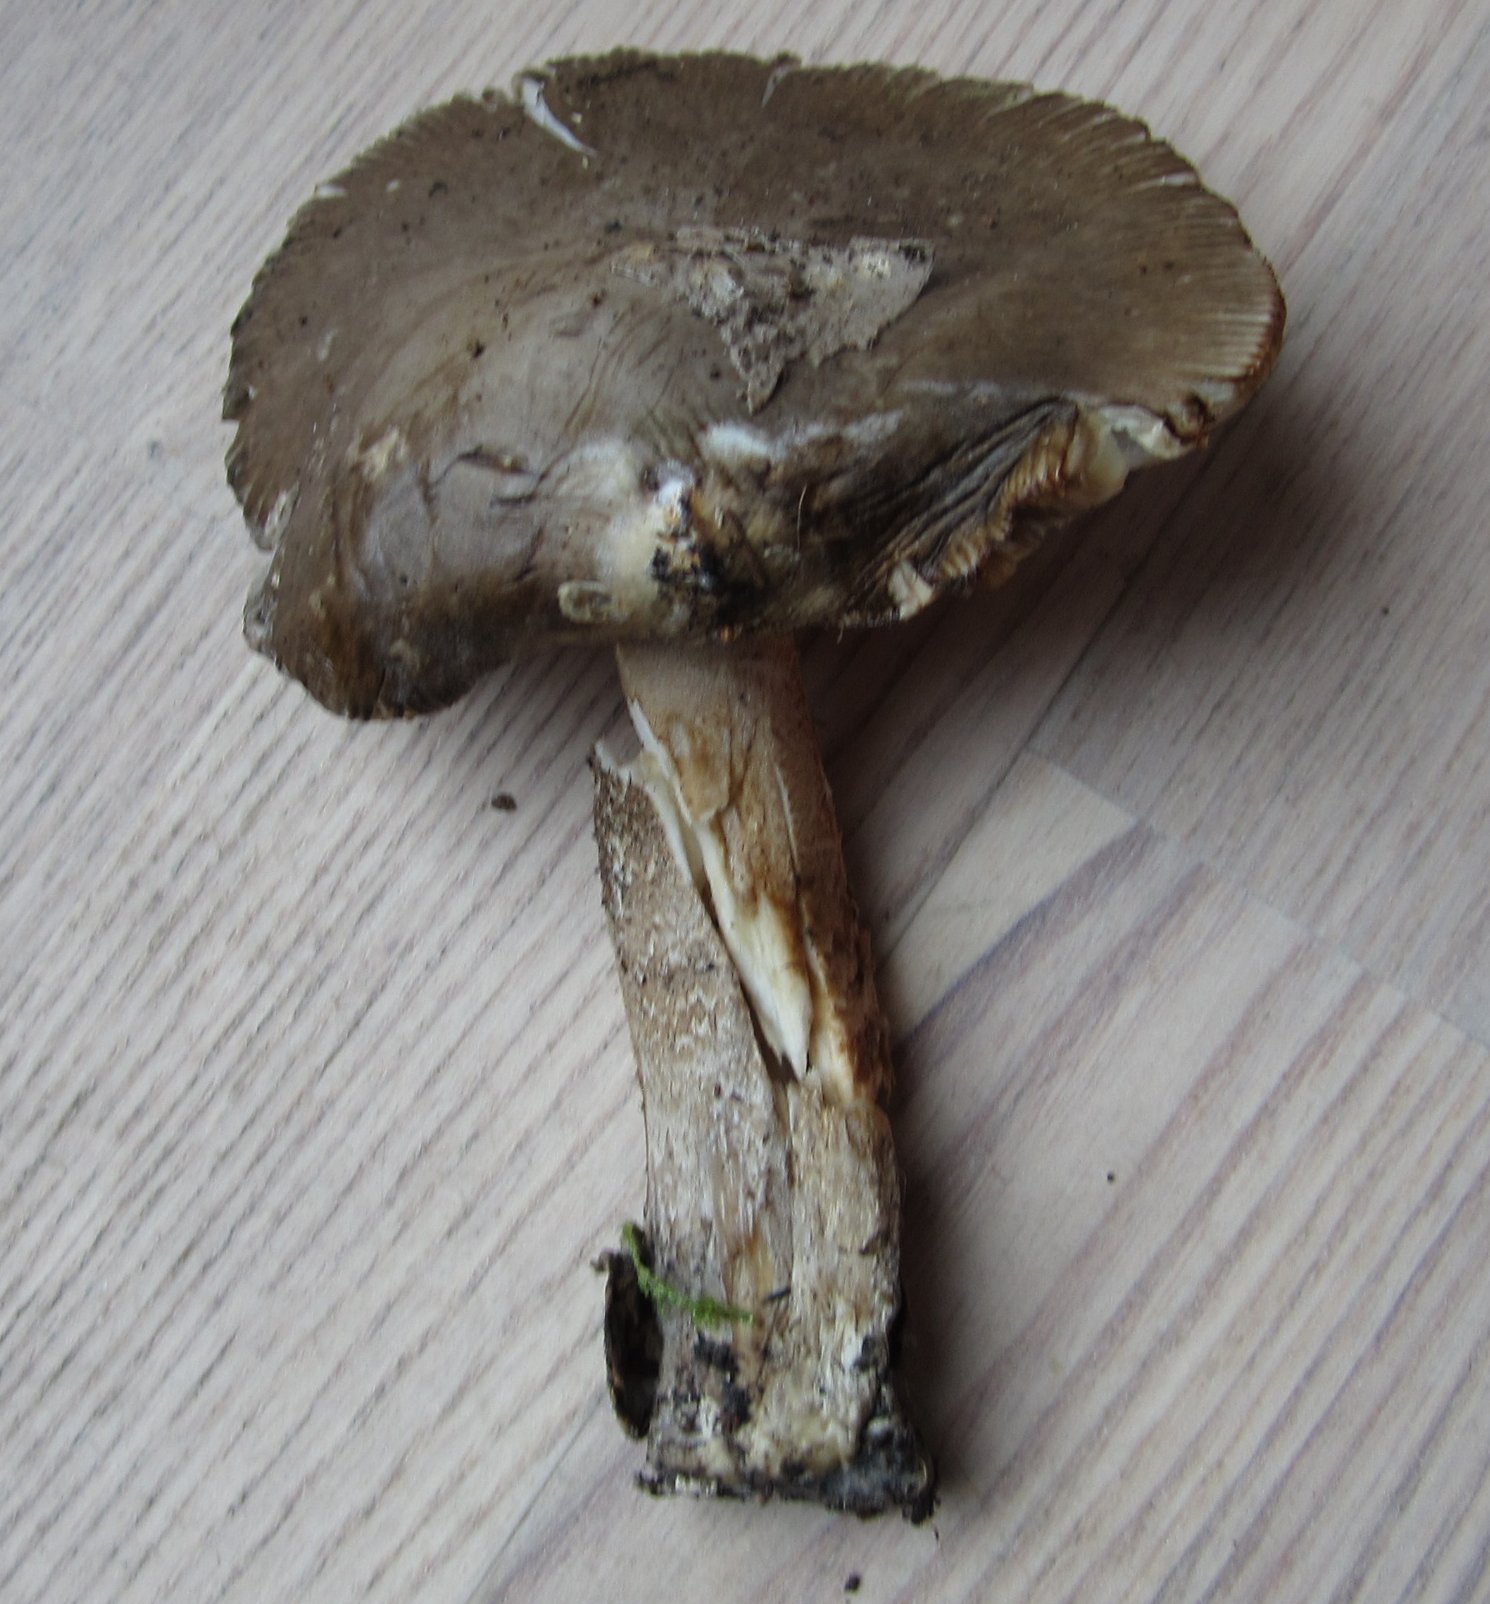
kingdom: Fungi
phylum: Basidiomycota
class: Agaricomycetes
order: Agaricales
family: Amanitaceae
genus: Amanita
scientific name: Amanita submembranacea
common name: gråspættet kam-fluesvamp
